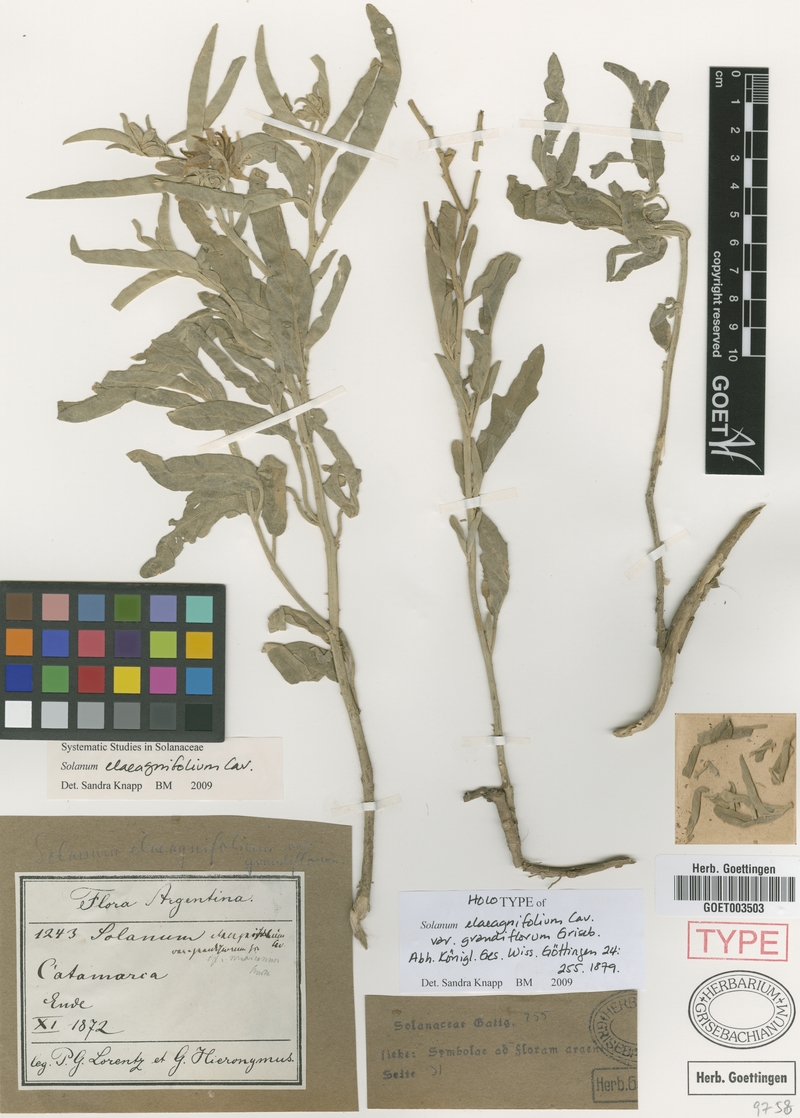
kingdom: Plantae
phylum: Tracheophyta
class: Magnoliopsida
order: Solanales
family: Solanaceae
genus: Solanum
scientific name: Solanum elaeagnifolium
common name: Silverleaf nightshade
